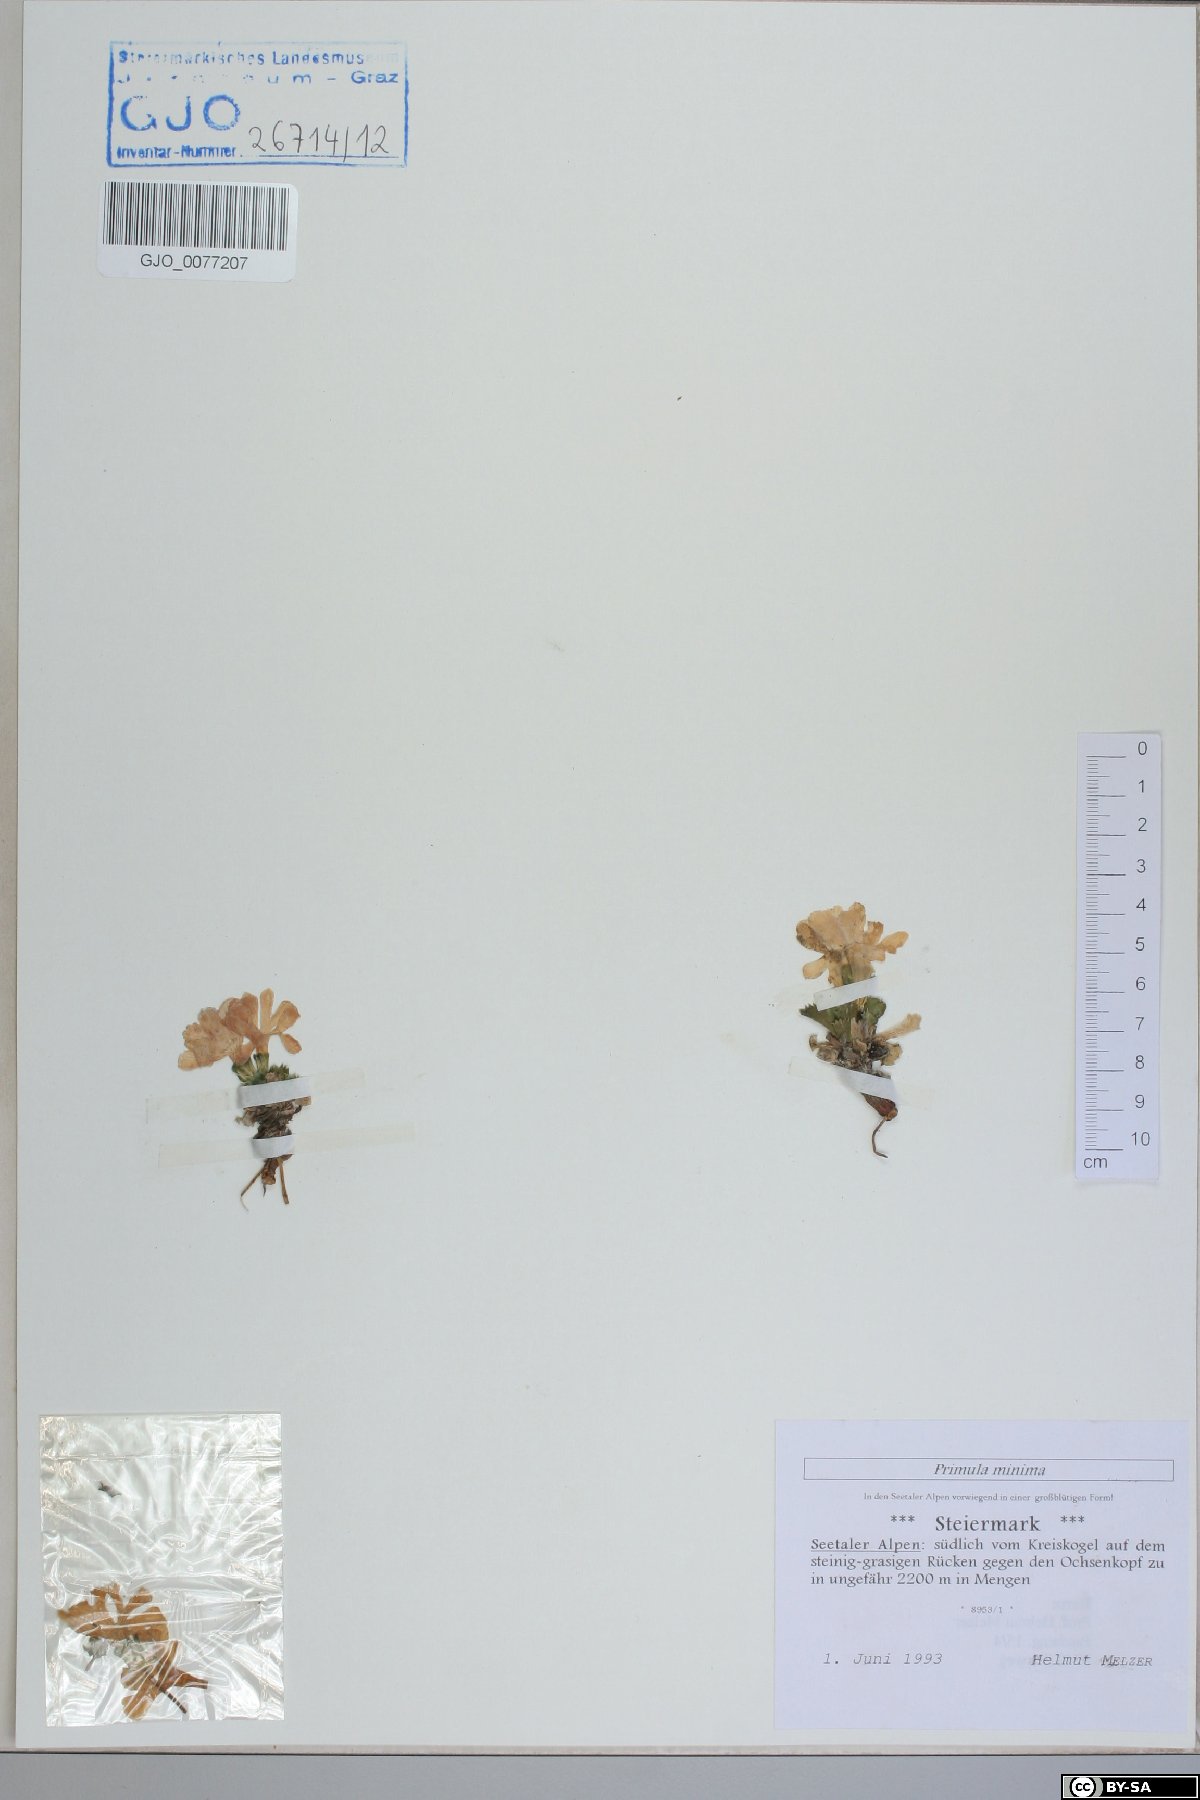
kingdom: Plantae
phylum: Tracheophyta
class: Magnoliopsida
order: Ericales
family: Primulaceae
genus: Primula
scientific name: Primula minima
